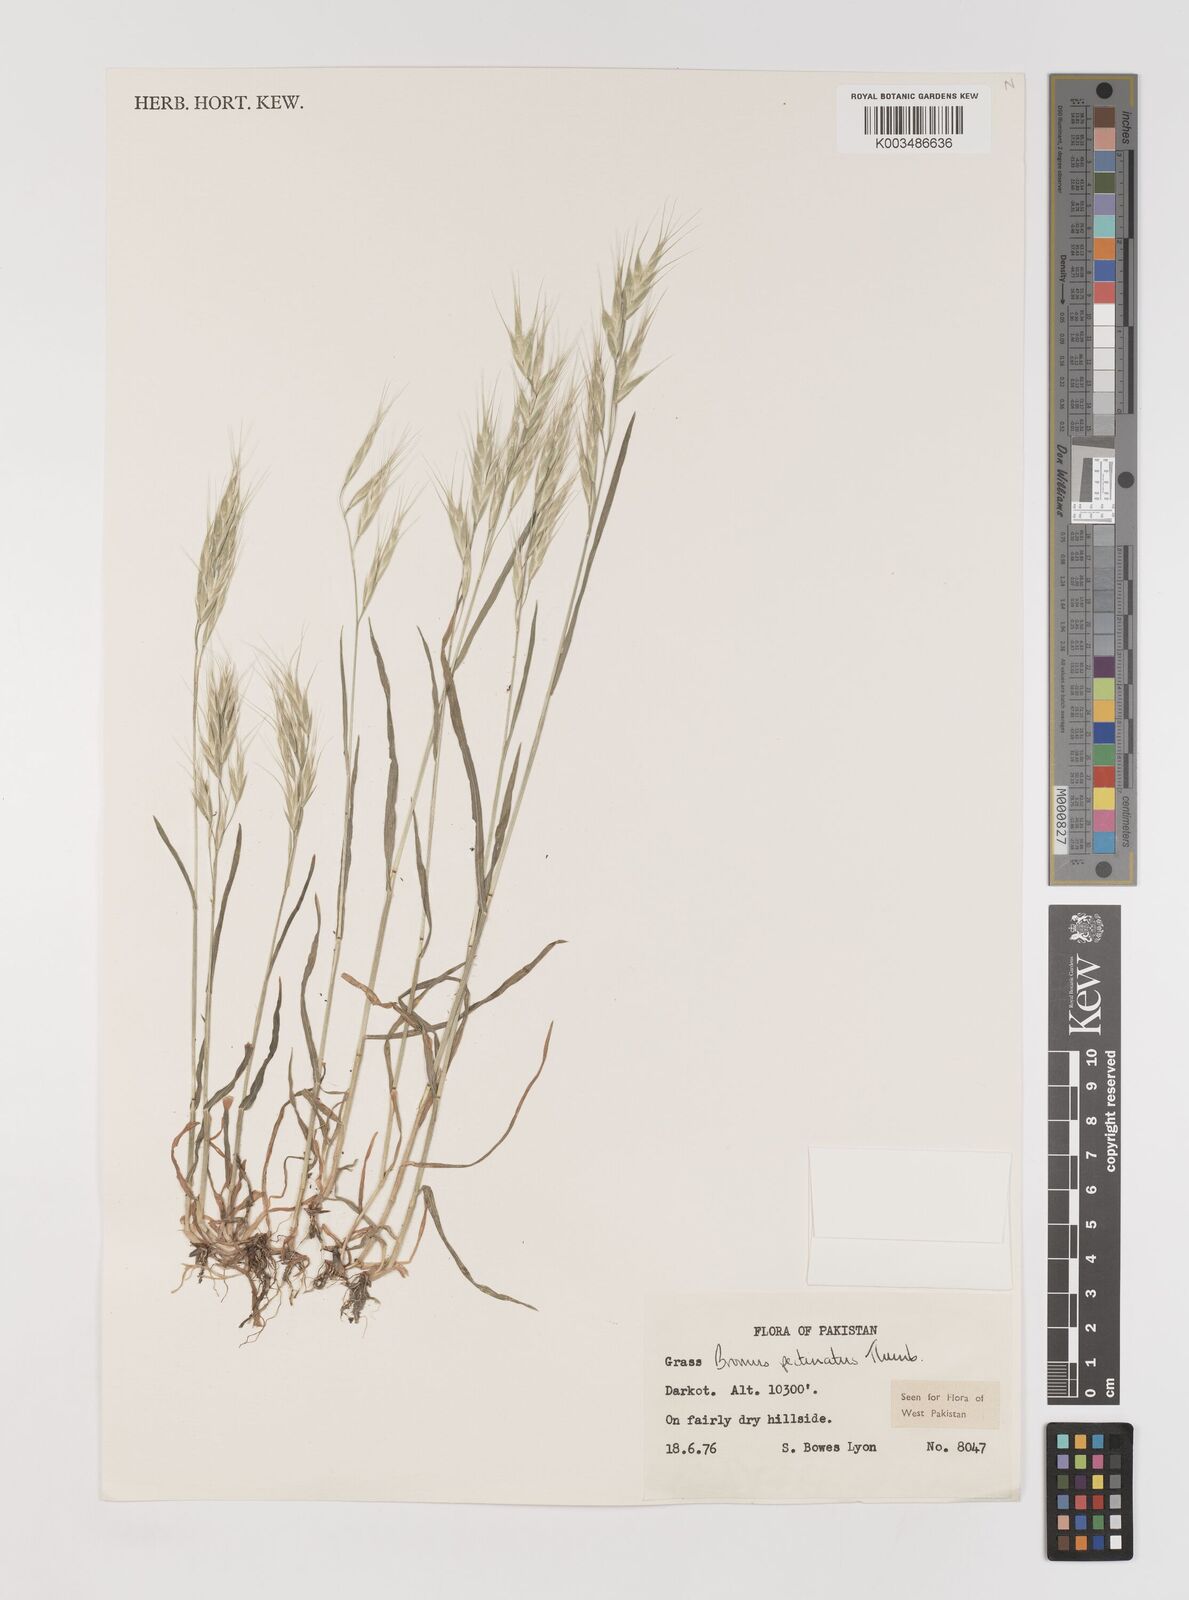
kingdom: Plantae
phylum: Tracheophyta
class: Liliopsida
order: Poales
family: Poaceae
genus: Bromus
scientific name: Bromus pectinatus
